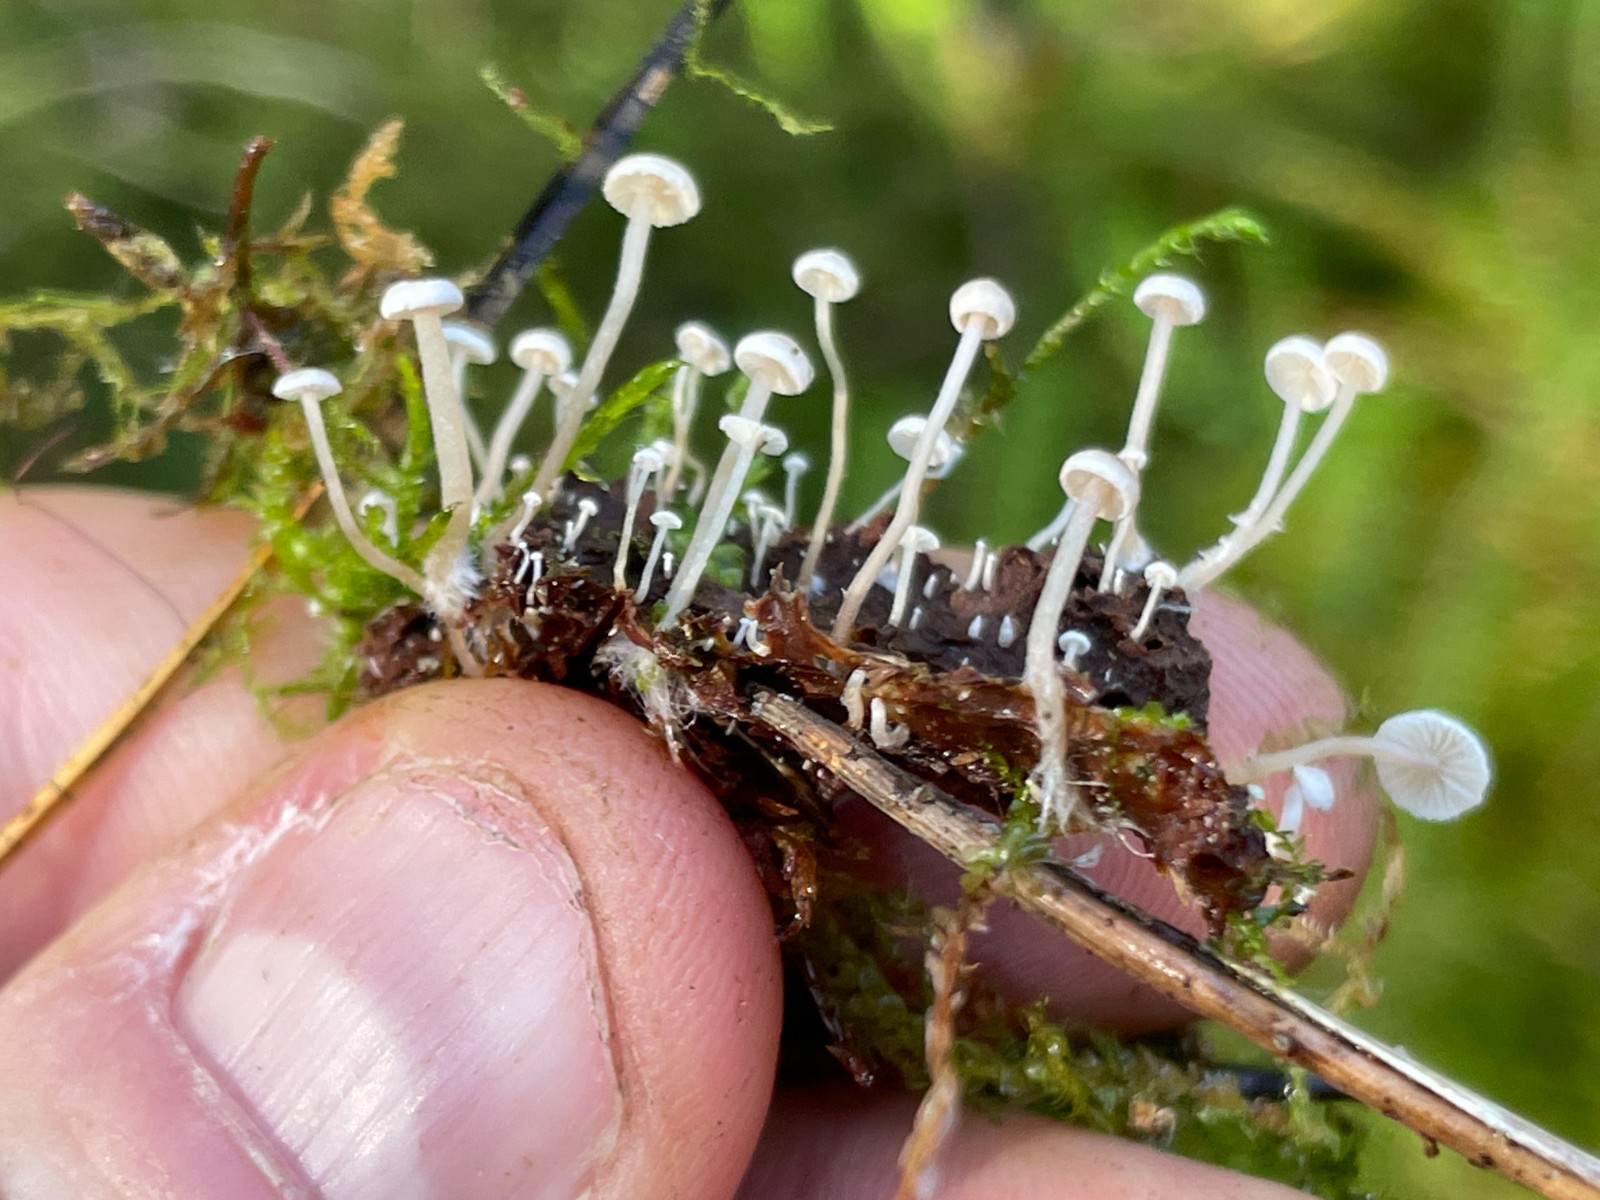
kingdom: Fungi
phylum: Basidiomycota
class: Agaricomycetes
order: Agaricales
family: Tricholomataceae
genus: Collybia
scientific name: Collybia cirrhata
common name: silke-lighat
